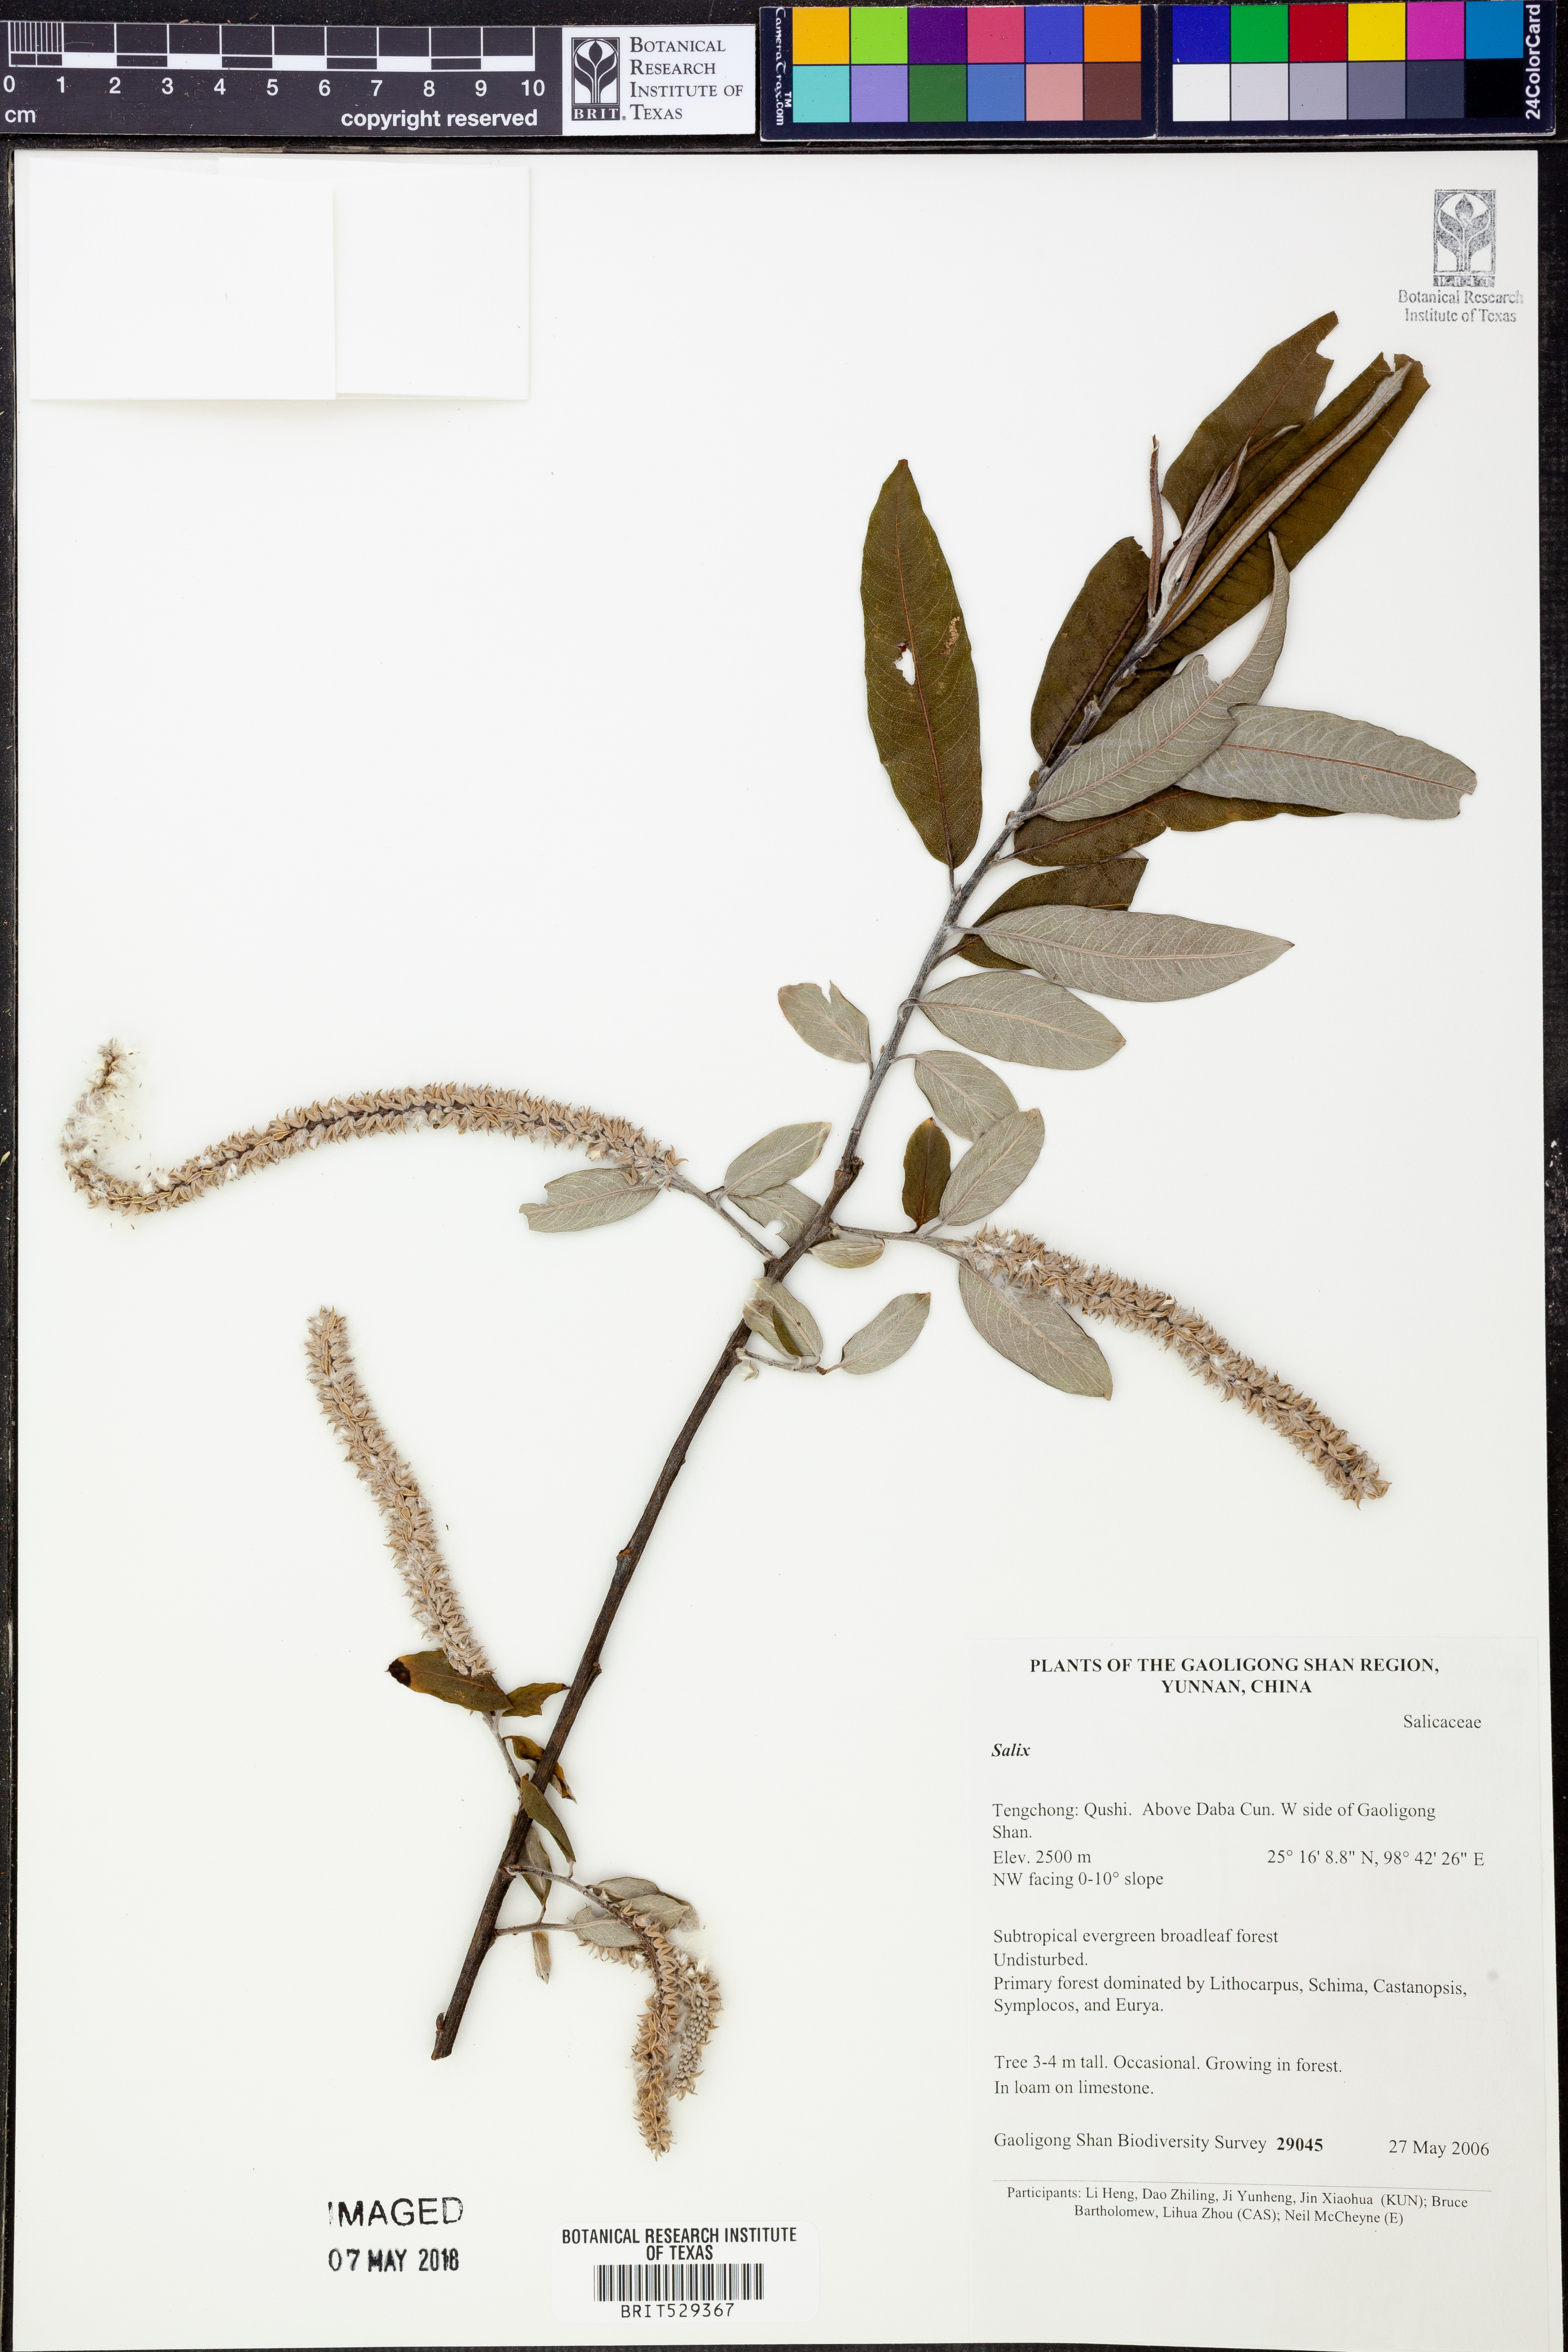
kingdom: Plantae
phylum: Tracheophyta
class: Magnoliopsida
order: Malpighiales
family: Salicaceae
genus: Salix
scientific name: Salix
